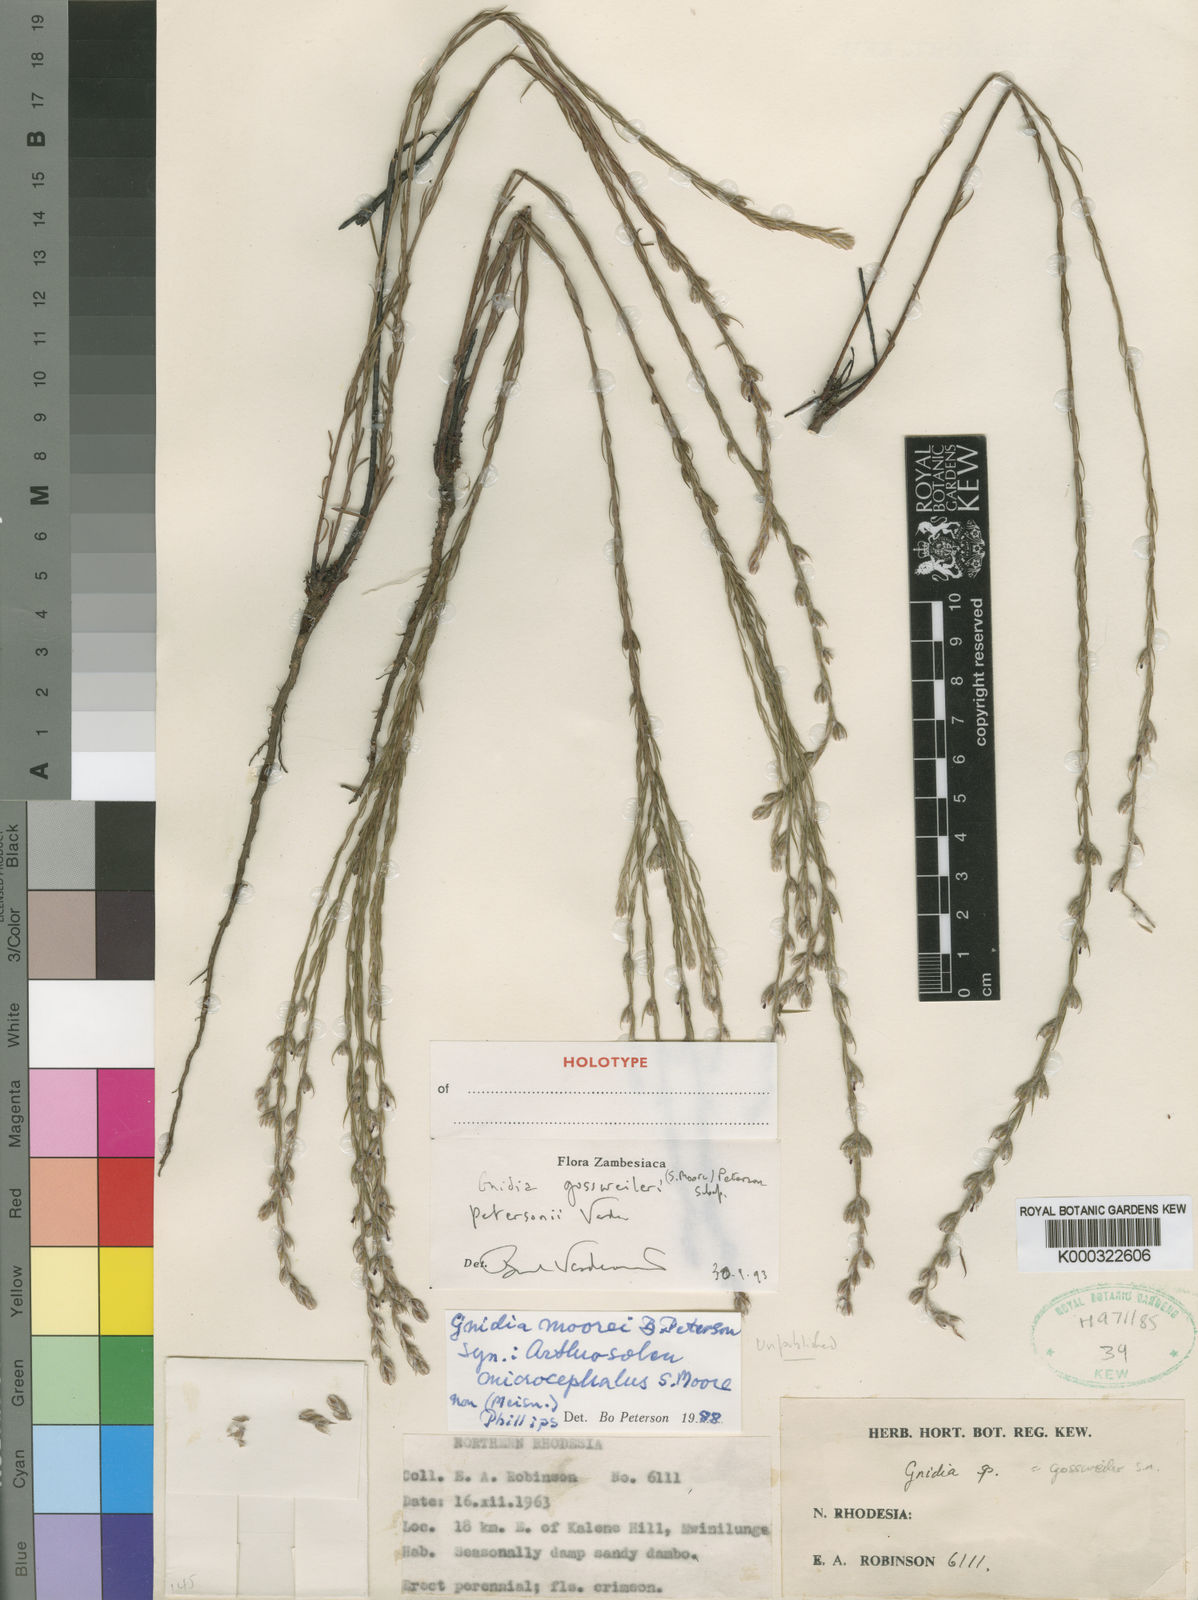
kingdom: Plantae
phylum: Tracheophyta
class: Magnoliopsida
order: Malvales
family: Thymelaeaceae
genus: Gnidia
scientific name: Gnidia gossweileri
